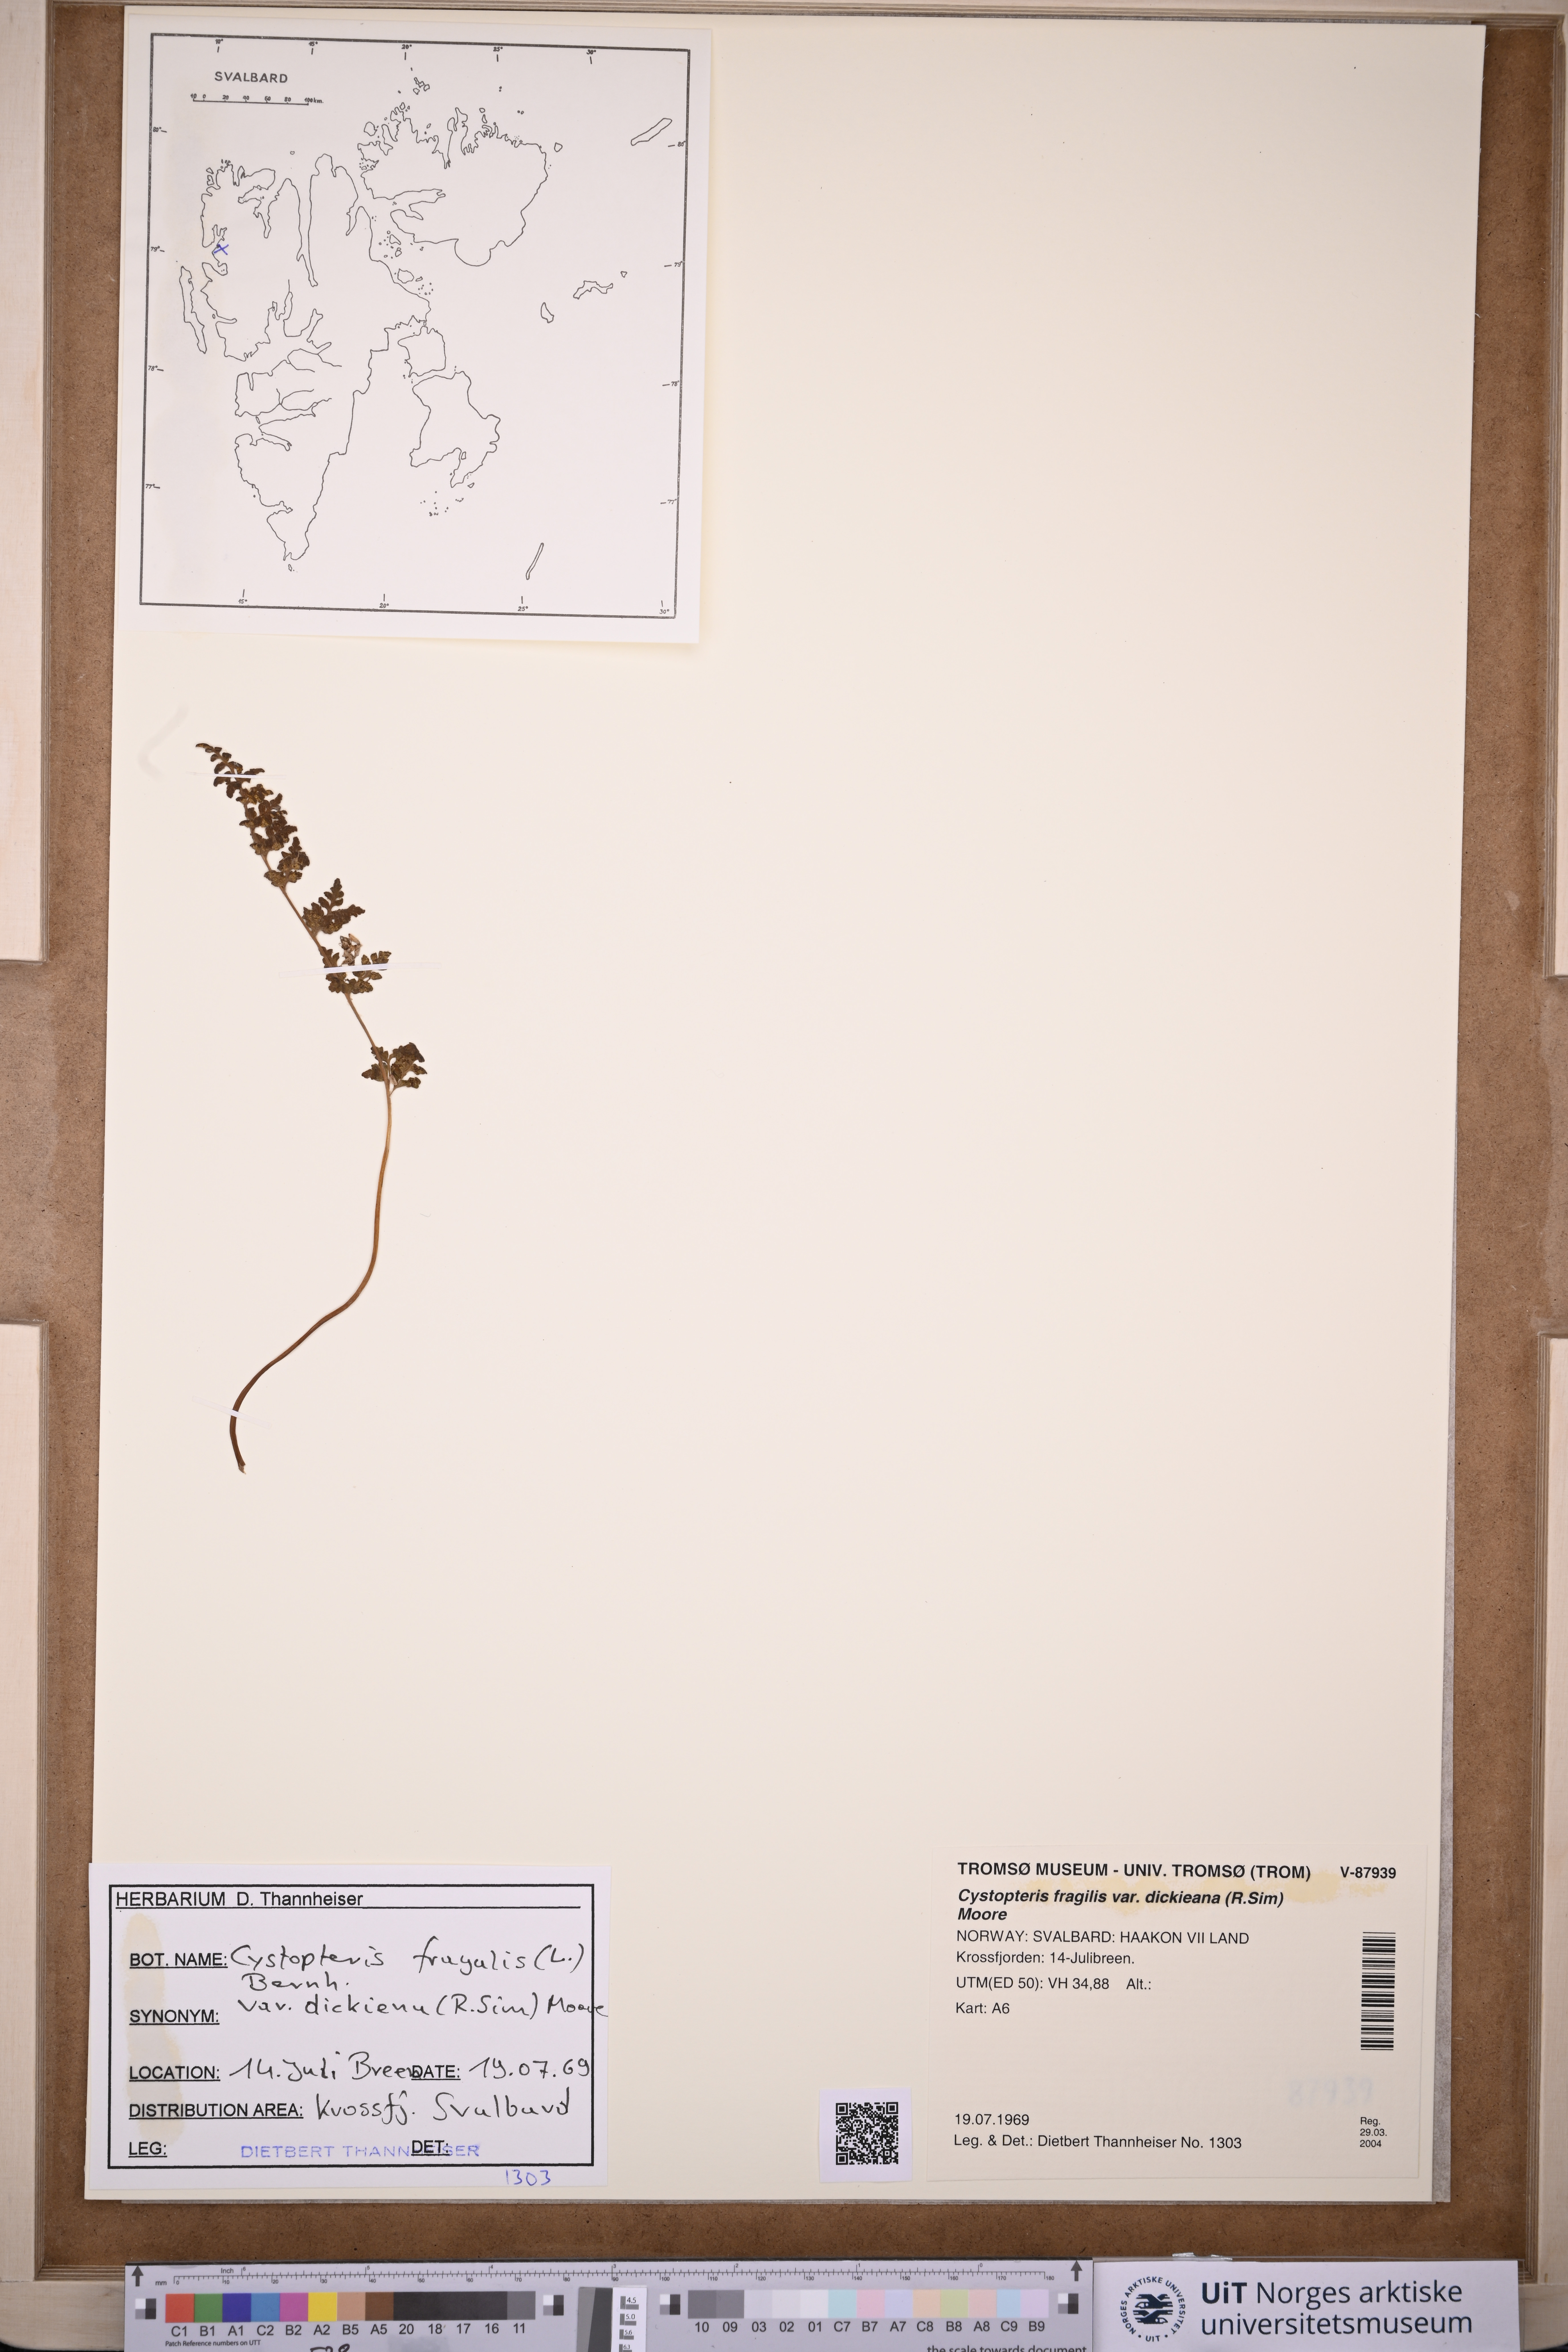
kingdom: Plantae
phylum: Tracheophyta
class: Polypodiopsida
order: Polypodiales
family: Cystopteridaceae
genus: Cystopteris
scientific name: Cystopteris dickieana
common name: Dickie's bladder-fern
